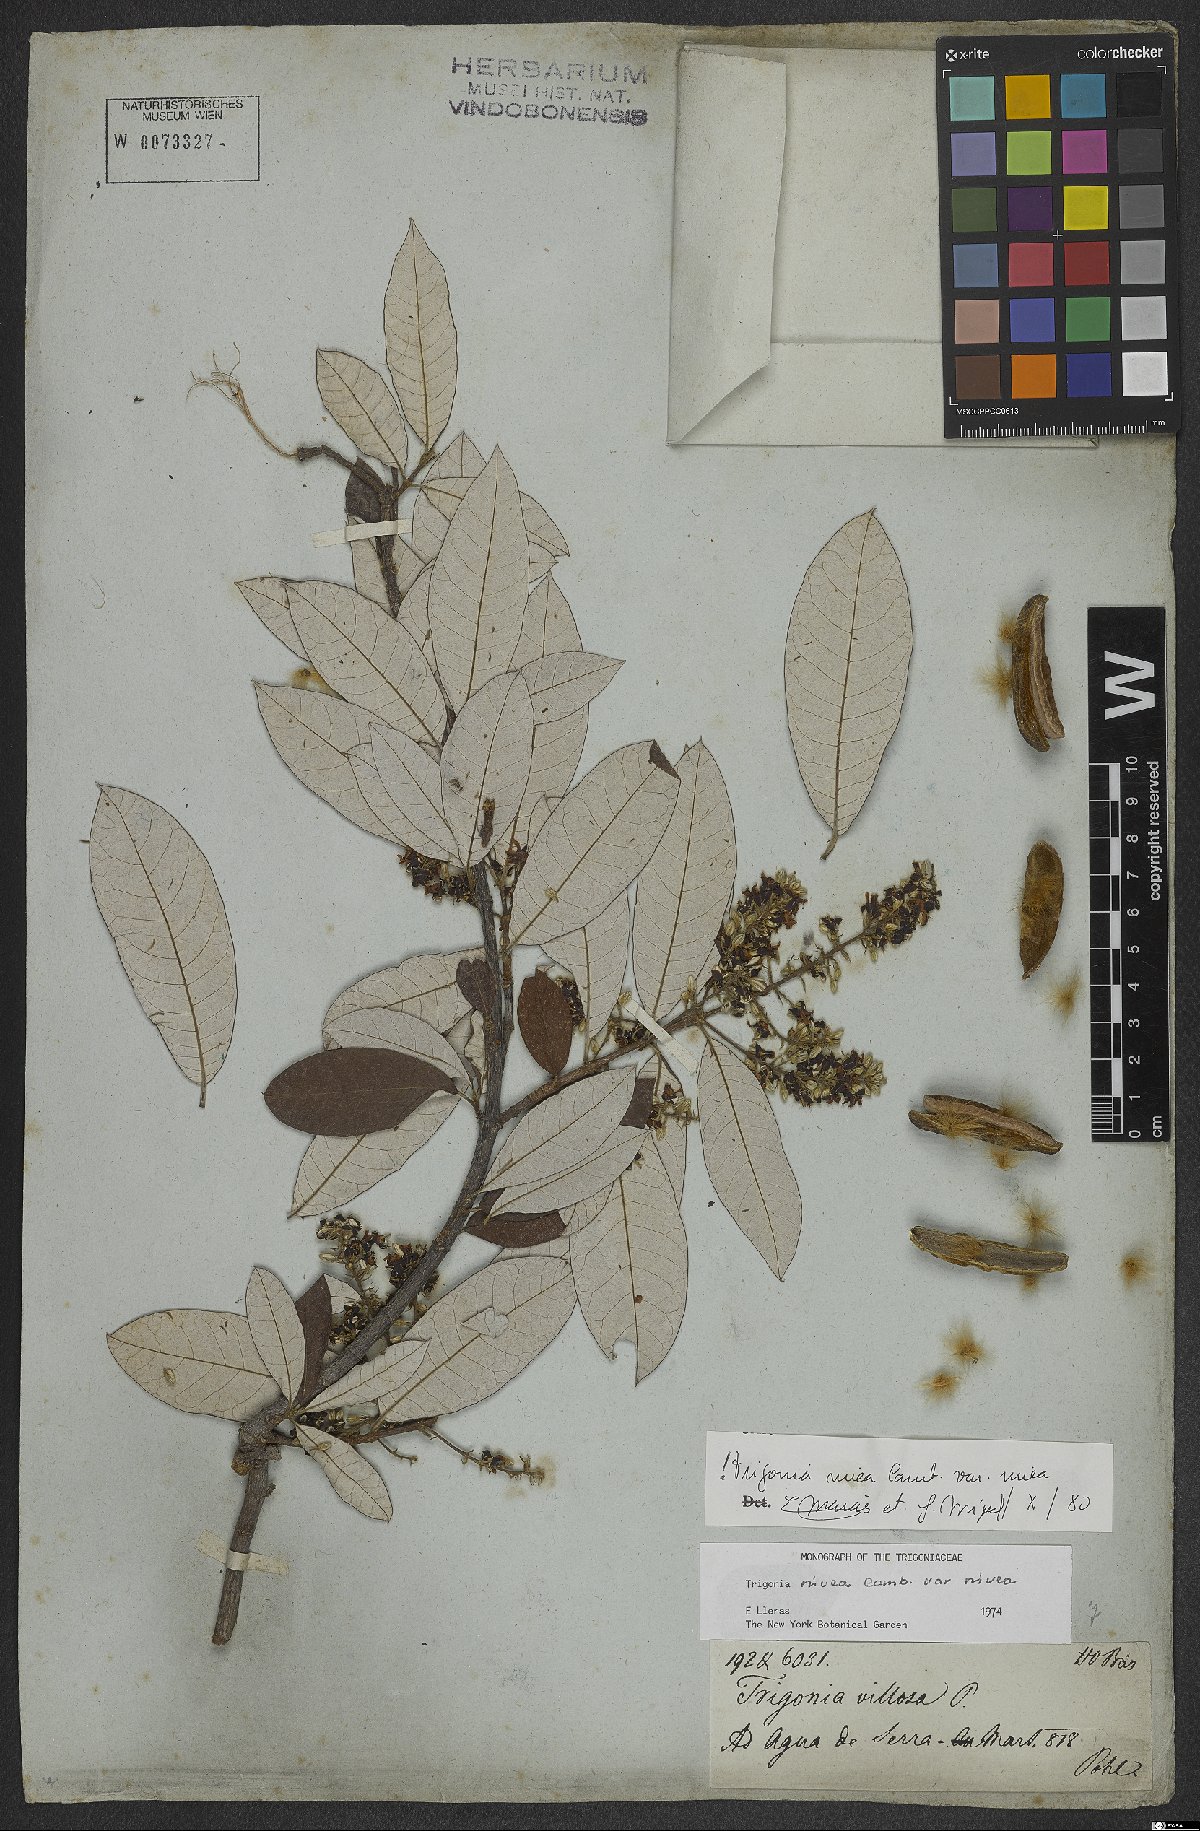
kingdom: Plantae
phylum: Tracheophyta
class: Magnoliopsida
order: Malpighiales
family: Trigoniaceae
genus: Trigonia
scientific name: Trigonia nivea
